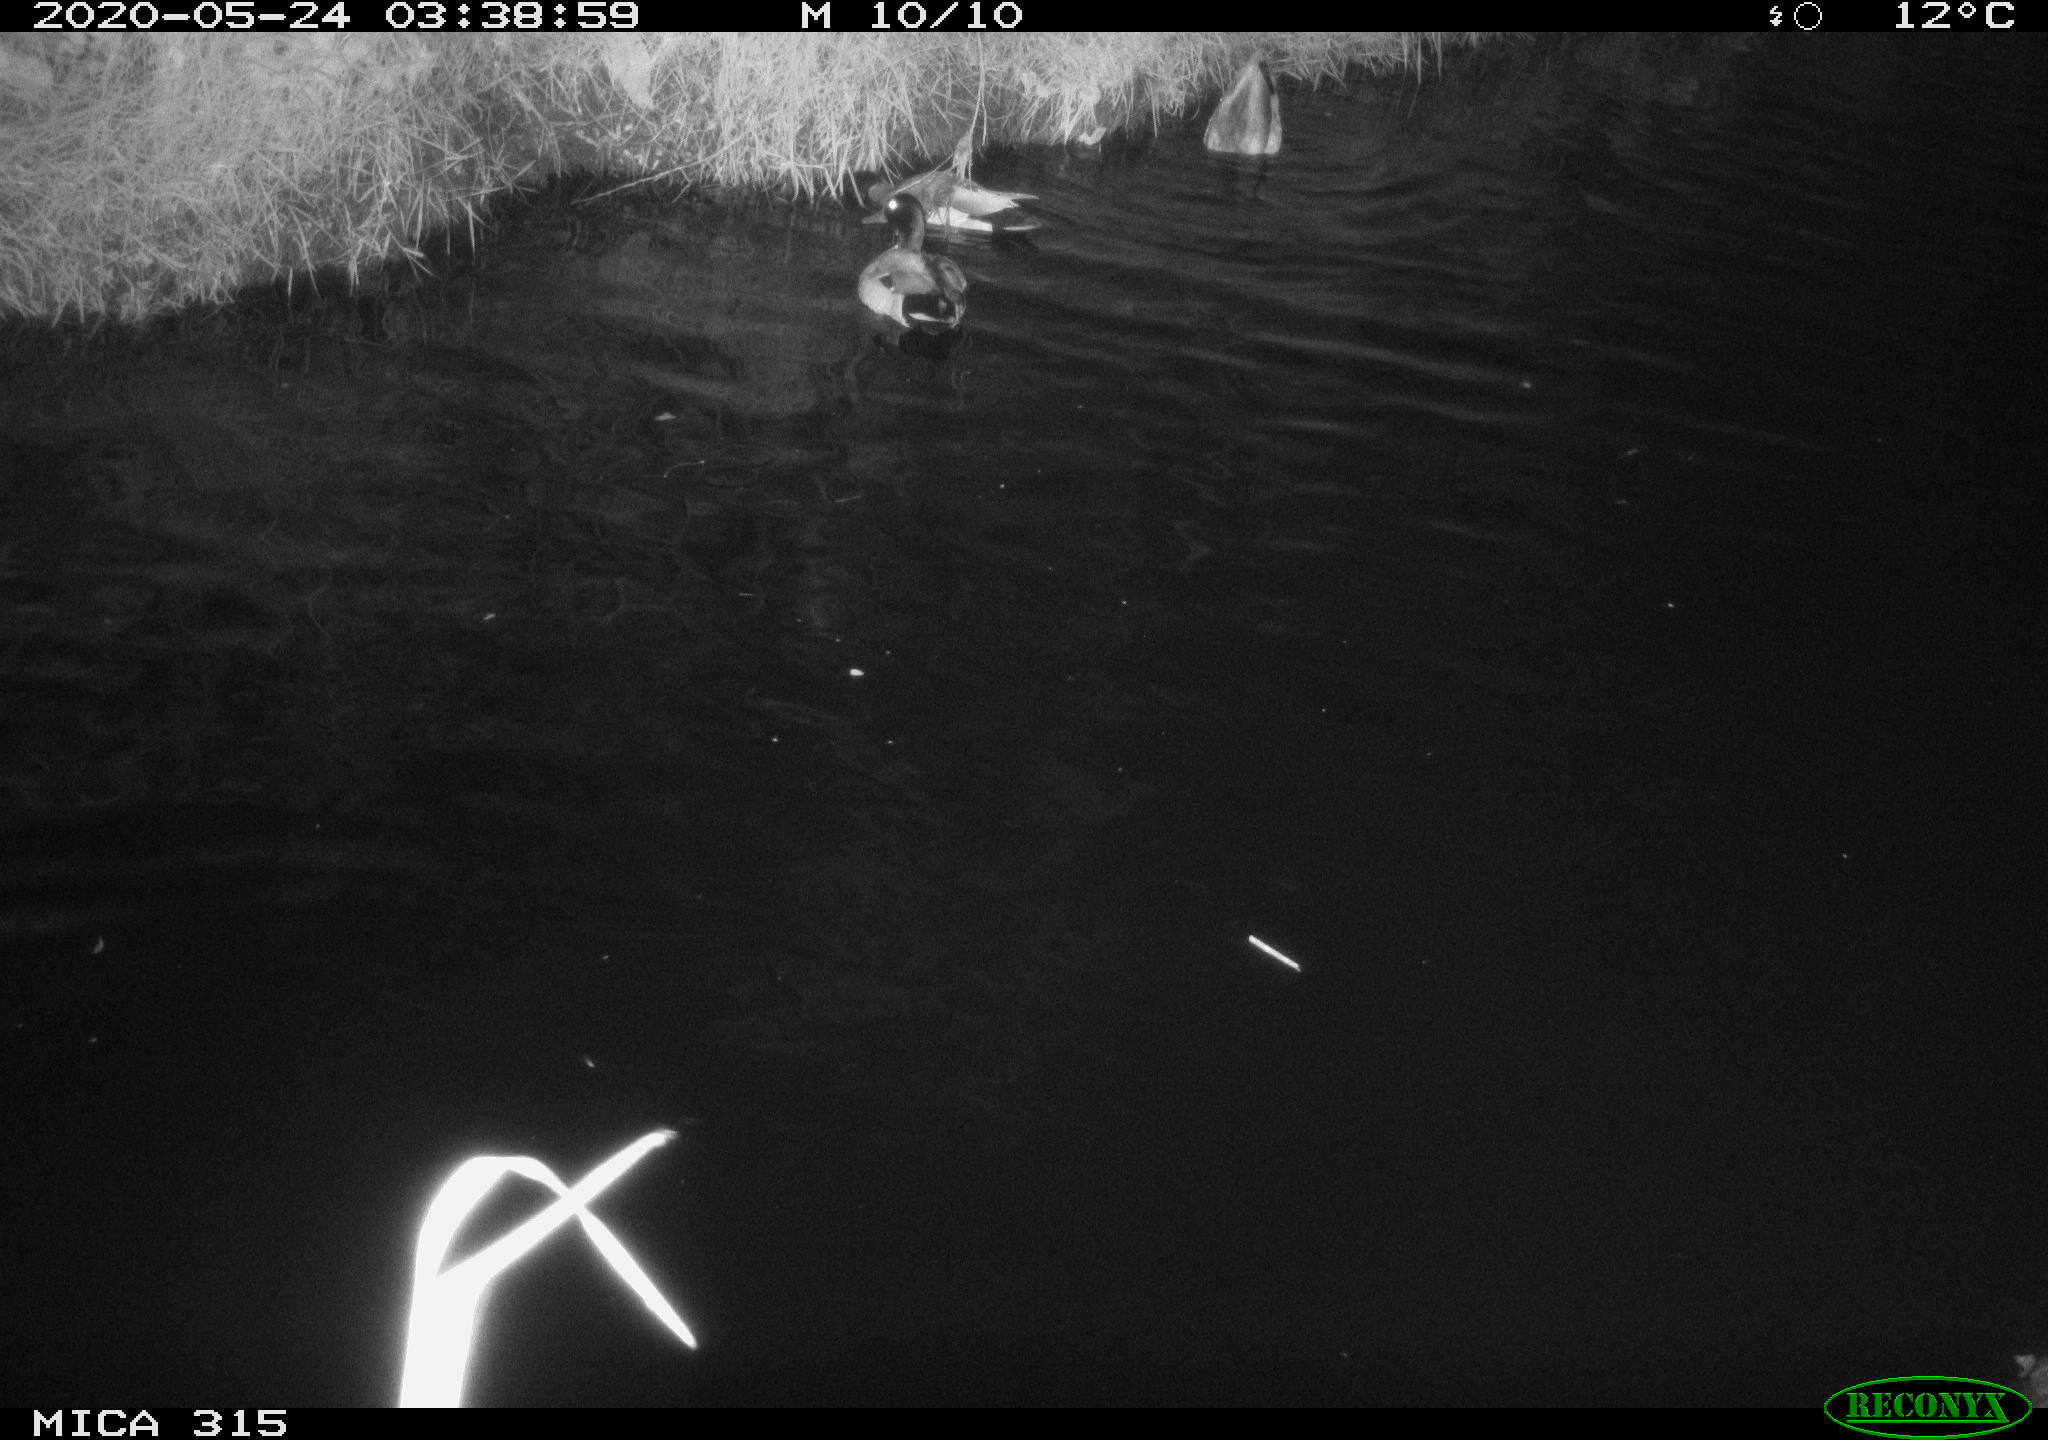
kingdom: Animalia
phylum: Chordata
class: Aves
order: Anseriformes
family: Anatidae
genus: Anas
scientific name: Anas platyrhynchos
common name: Mallard
